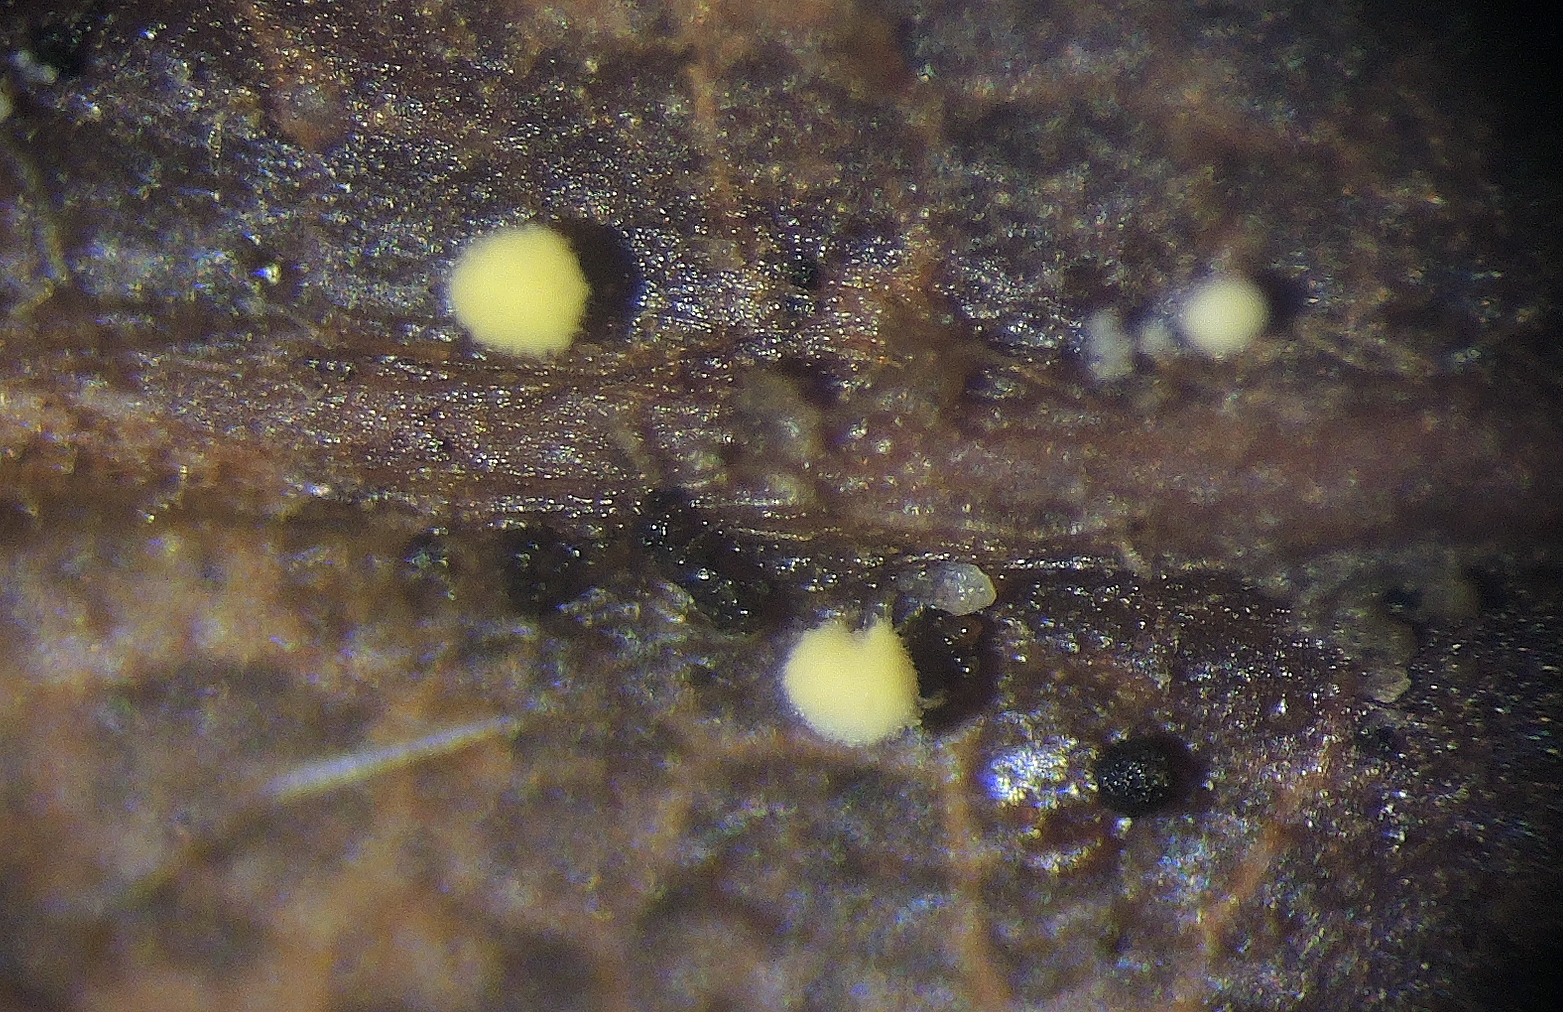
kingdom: Fungi
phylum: Ascomycota
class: Sordariomycetes
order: Hypocreales
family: Cylindriaceae
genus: Cylindrium
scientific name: Cylindrium aeruginosum
